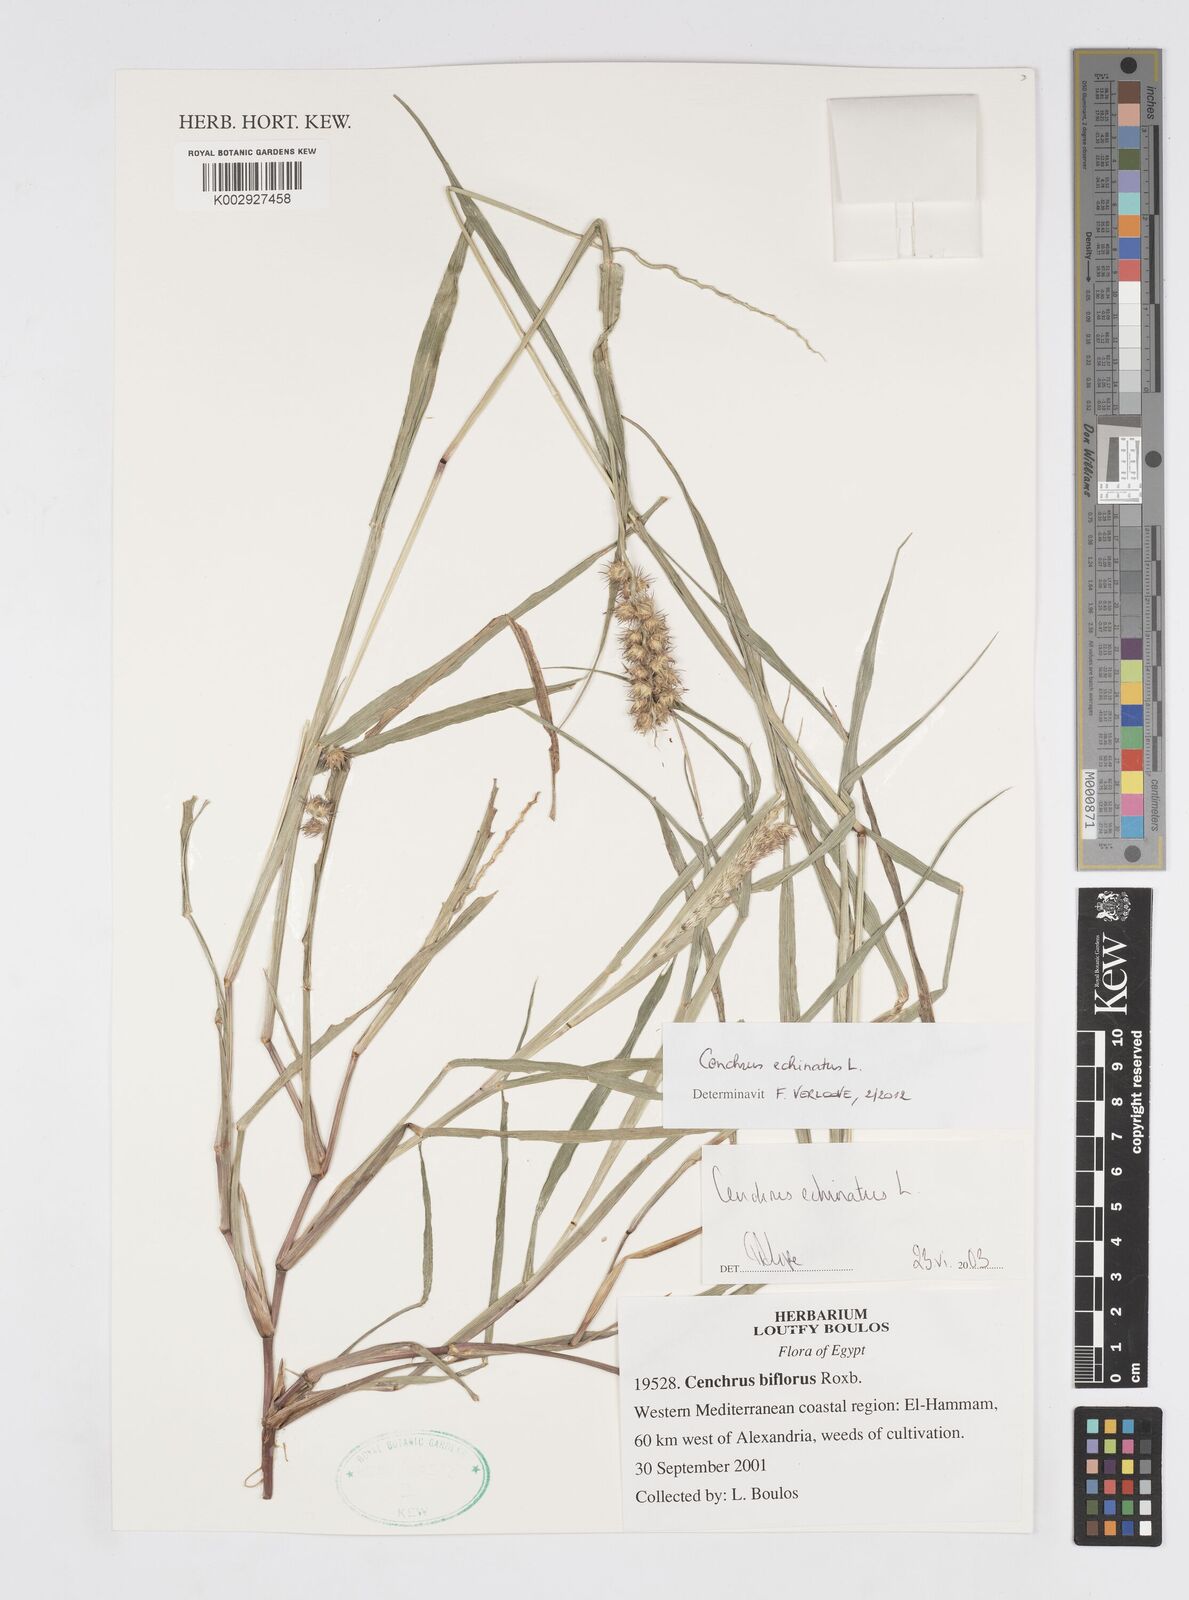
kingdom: Plantae
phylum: Tracheophyta
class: Liliopsida
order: Poales
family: Poaceae
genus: Cenchrus
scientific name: Cenchrus echinatus
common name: Southern sandbur
